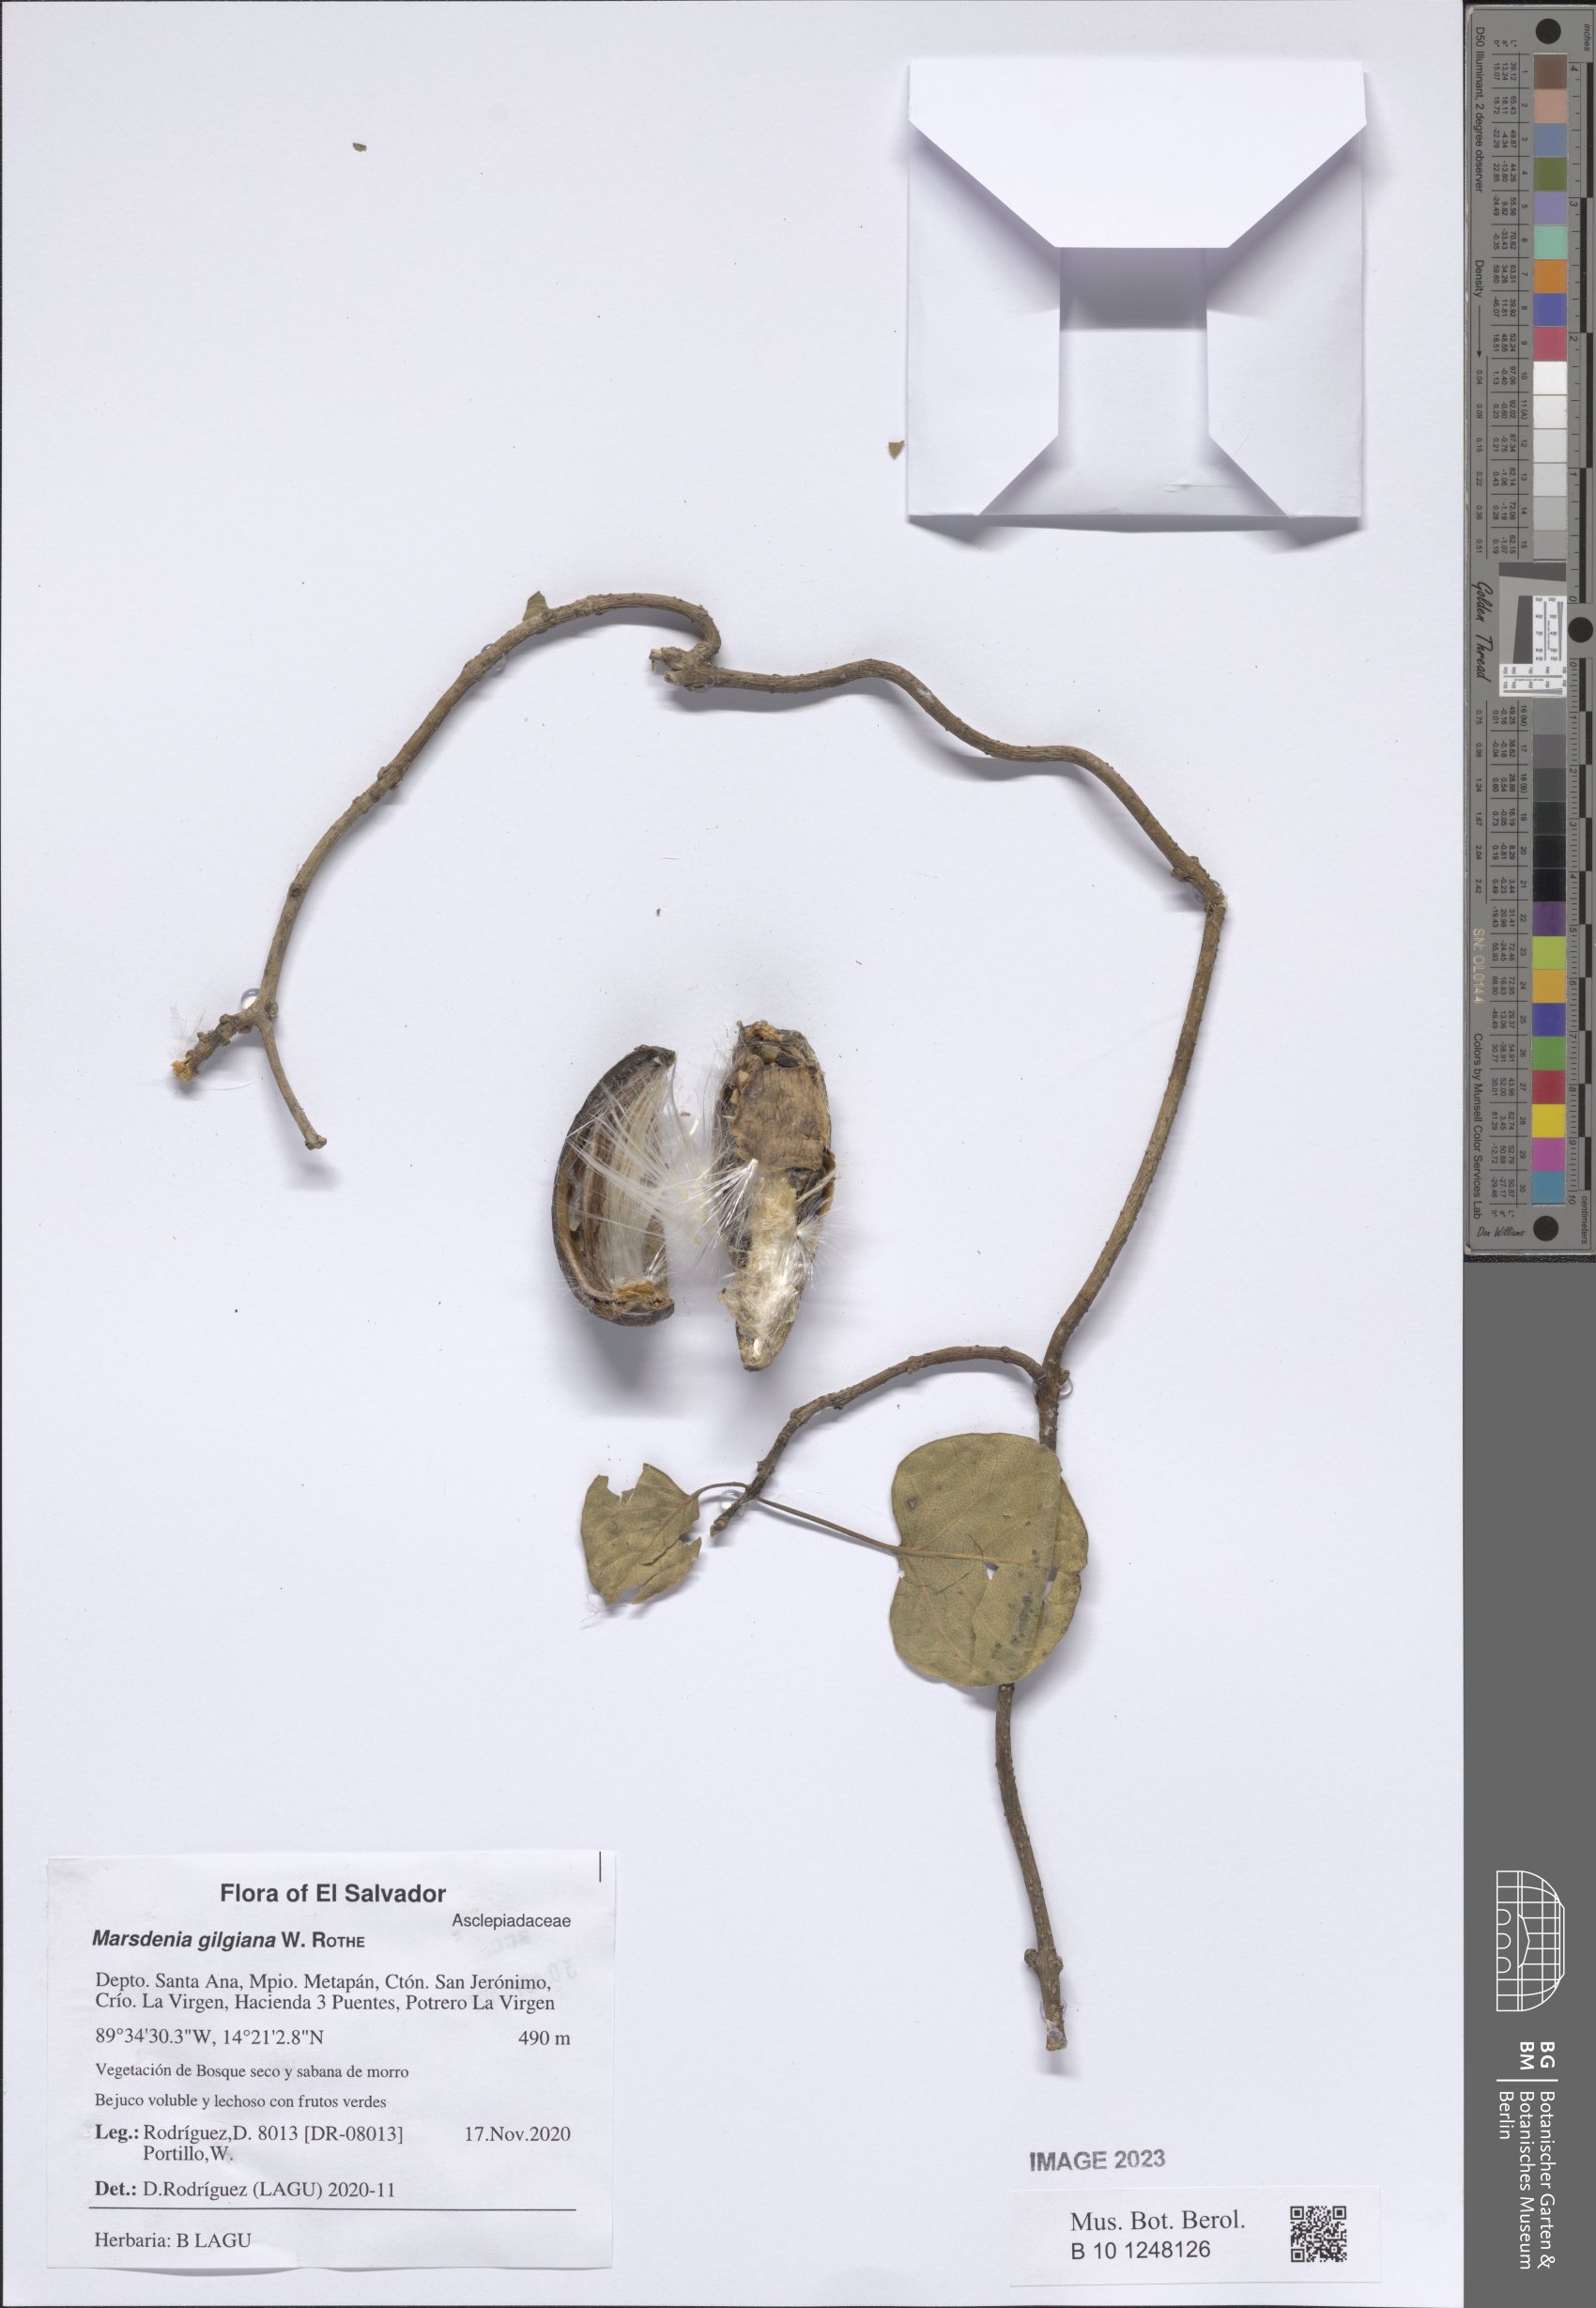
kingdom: Plantae
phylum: Tracheophyta
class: Magnoliopsida
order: Gentianales
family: Apocynaceae
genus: Ruehssia
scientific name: Ruehssia gilgiana
